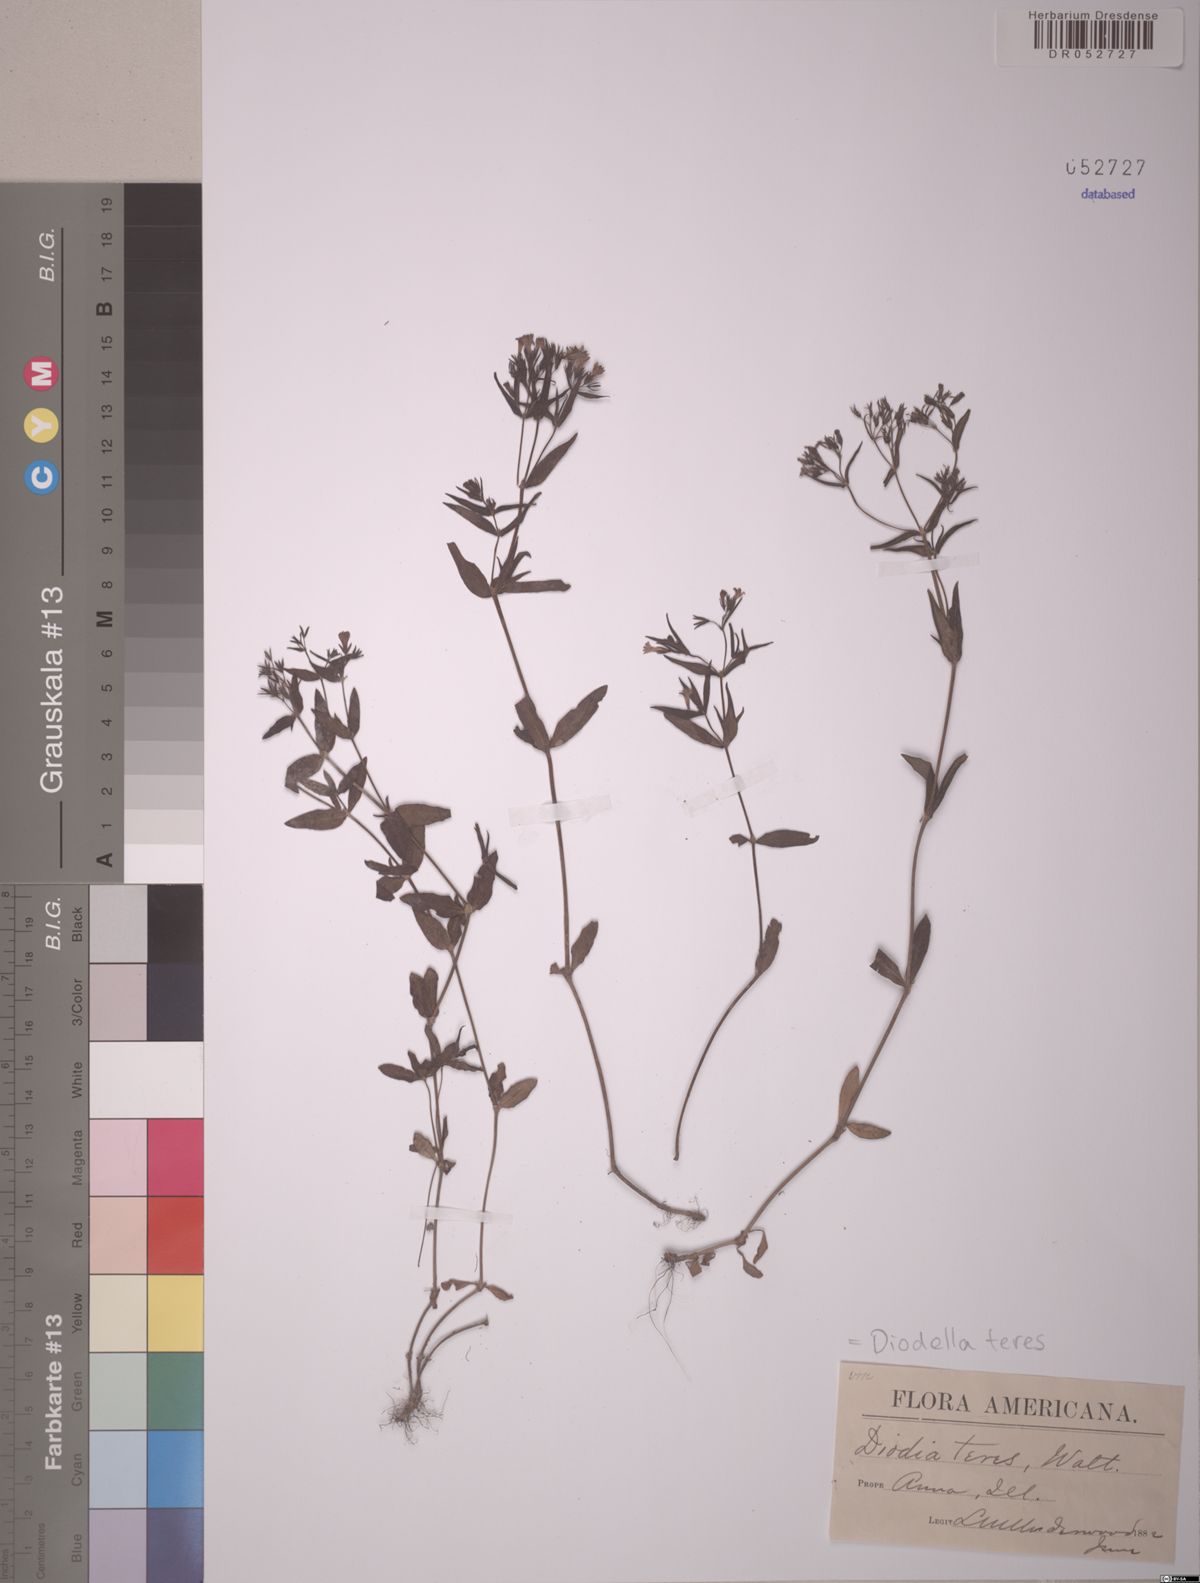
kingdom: Plantae
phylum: Tracheophyta
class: Magnoliopsida
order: Gentianales
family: Rubiaceae
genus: Hexasepalum
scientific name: Hexasepalum teres
